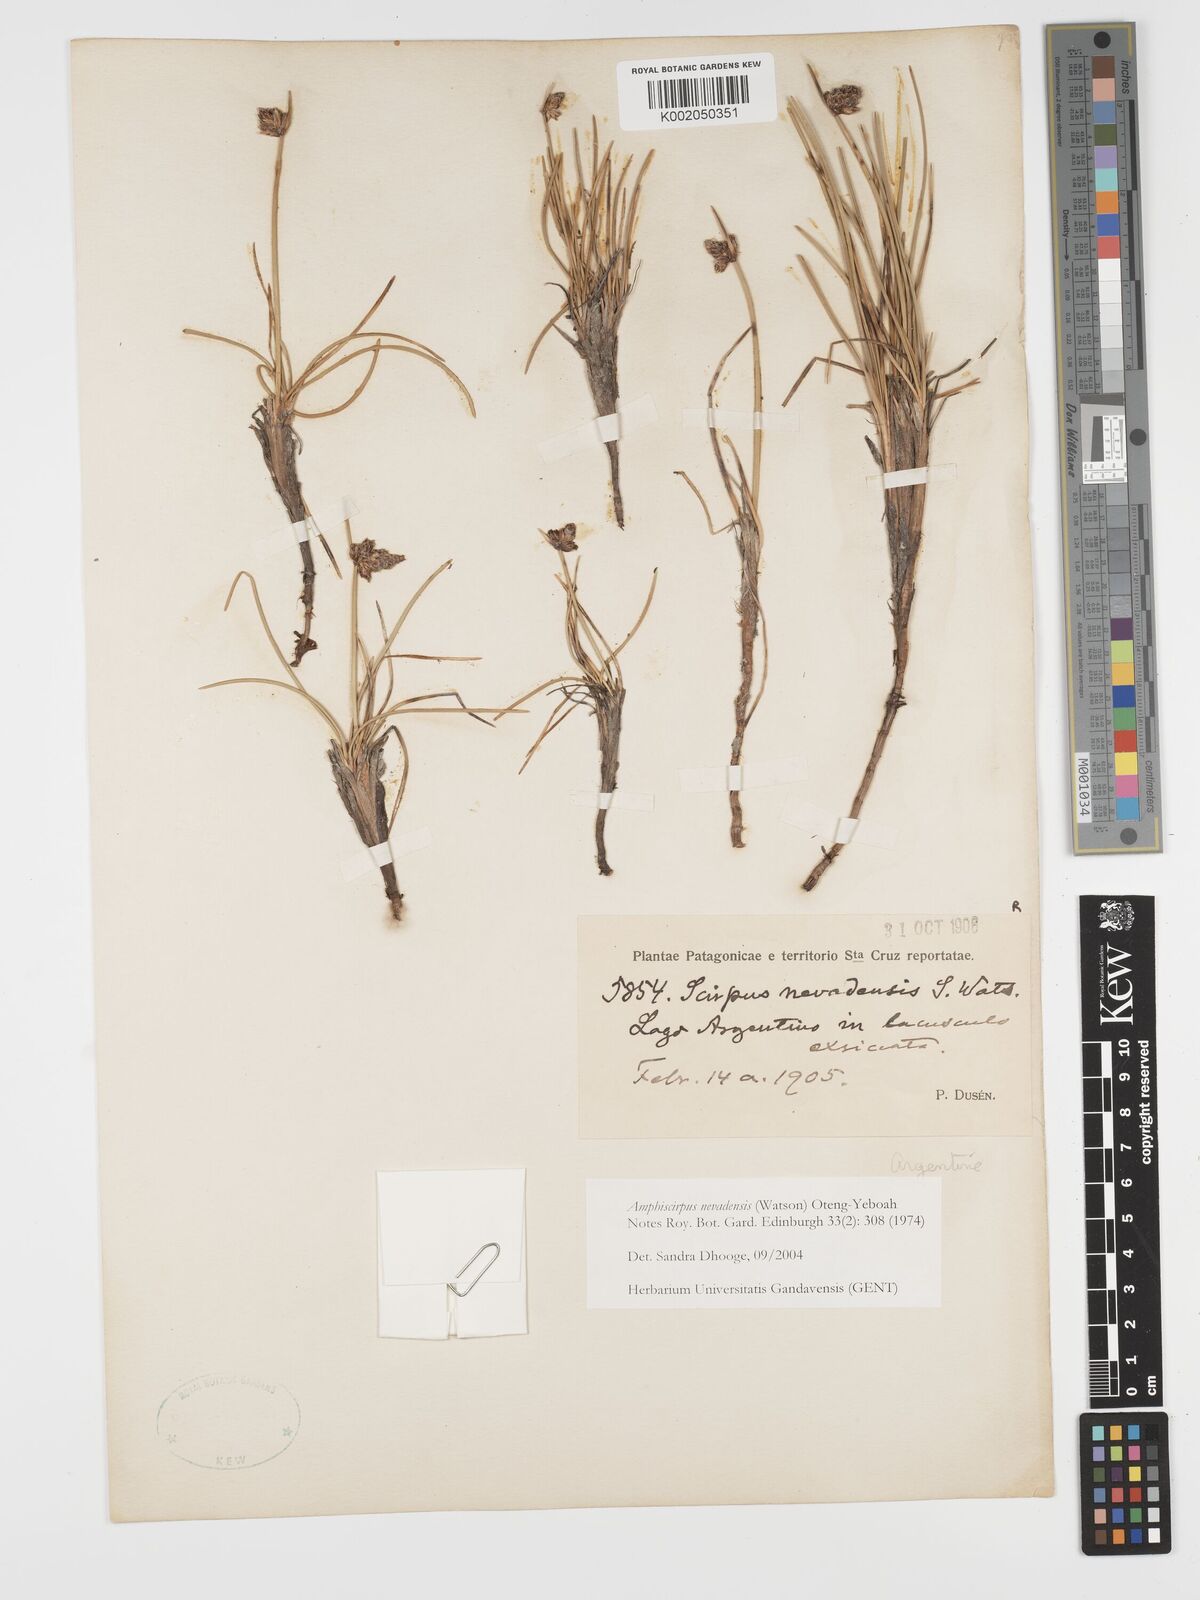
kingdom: Plantae
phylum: Tracheophyta
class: Liliopsida
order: Poales
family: Cyperaceae
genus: Amphiscirpus
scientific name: Amphiscirpus nevadensis
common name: Nevada bulrush
